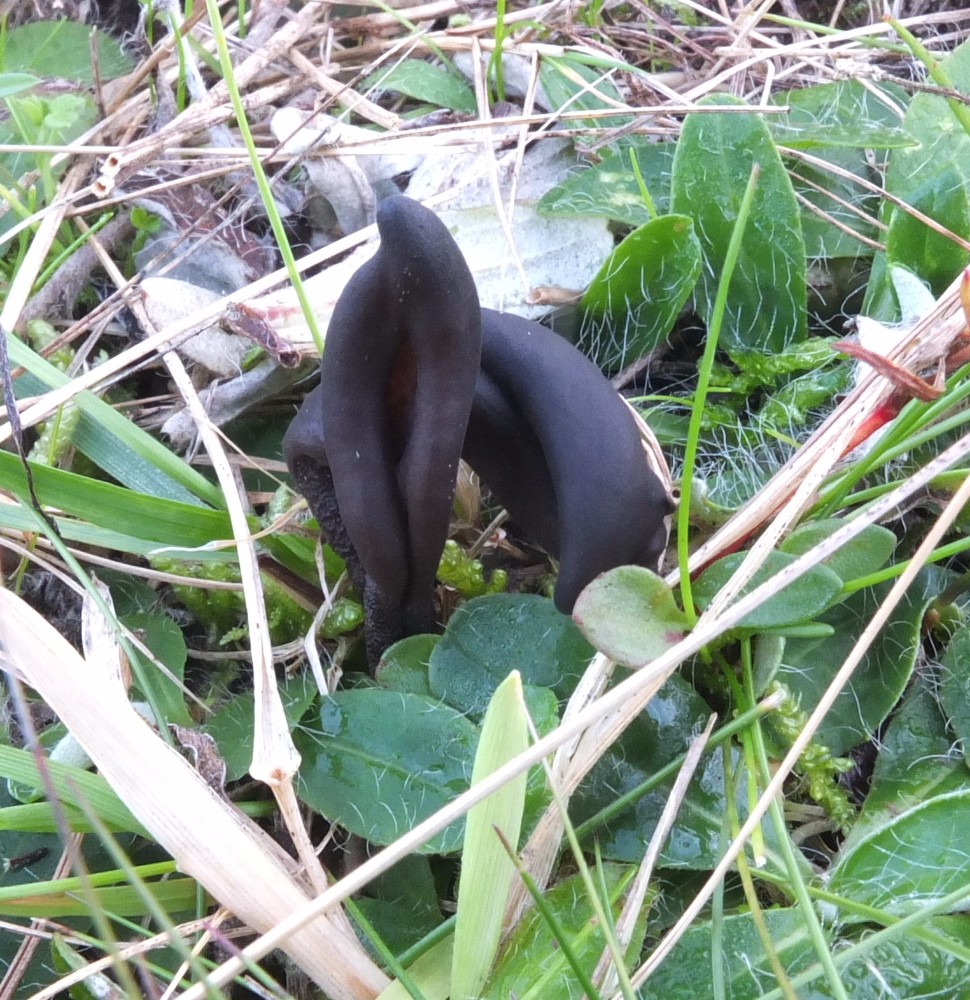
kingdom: Fungi
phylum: Ascomycota
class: Geoglossomycetes
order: Geoglossales
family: Geoglossaceae
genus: Geoglossum
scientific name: Geoglossum fallax
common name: småskællet jordtunge
